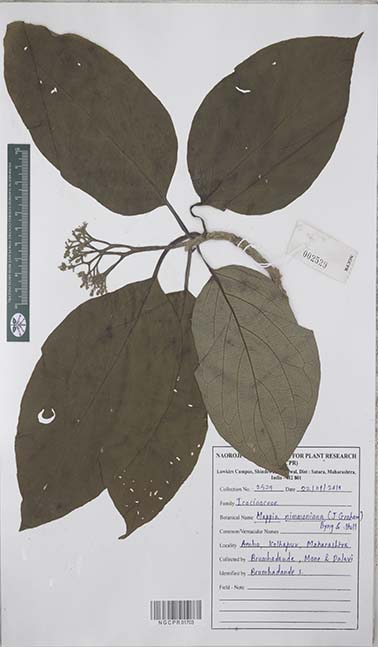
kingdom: Plantae
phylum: Tracheophyta
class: Magnoliopsida
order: Icacinales
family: Icacinaceae
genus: Nothapodytes
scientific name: Nothapodytes nimmoniana
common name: Nothapodytes
